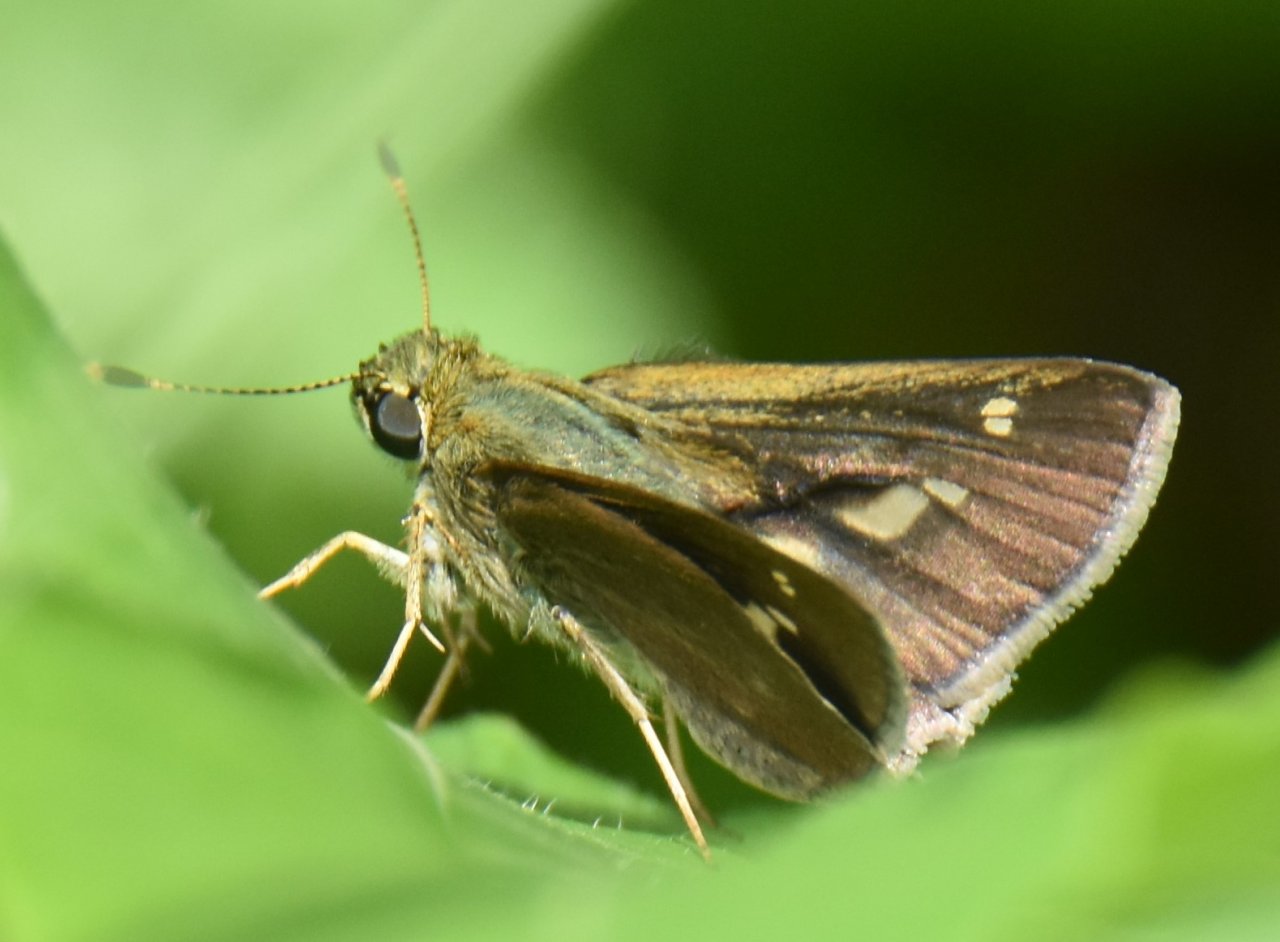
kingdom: Animalia
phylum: Arthropoda
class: Insecta
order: Lepidoptera
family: Hesperiidae
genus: Vernia
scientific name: Vernia verna
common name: Little Glassywing
